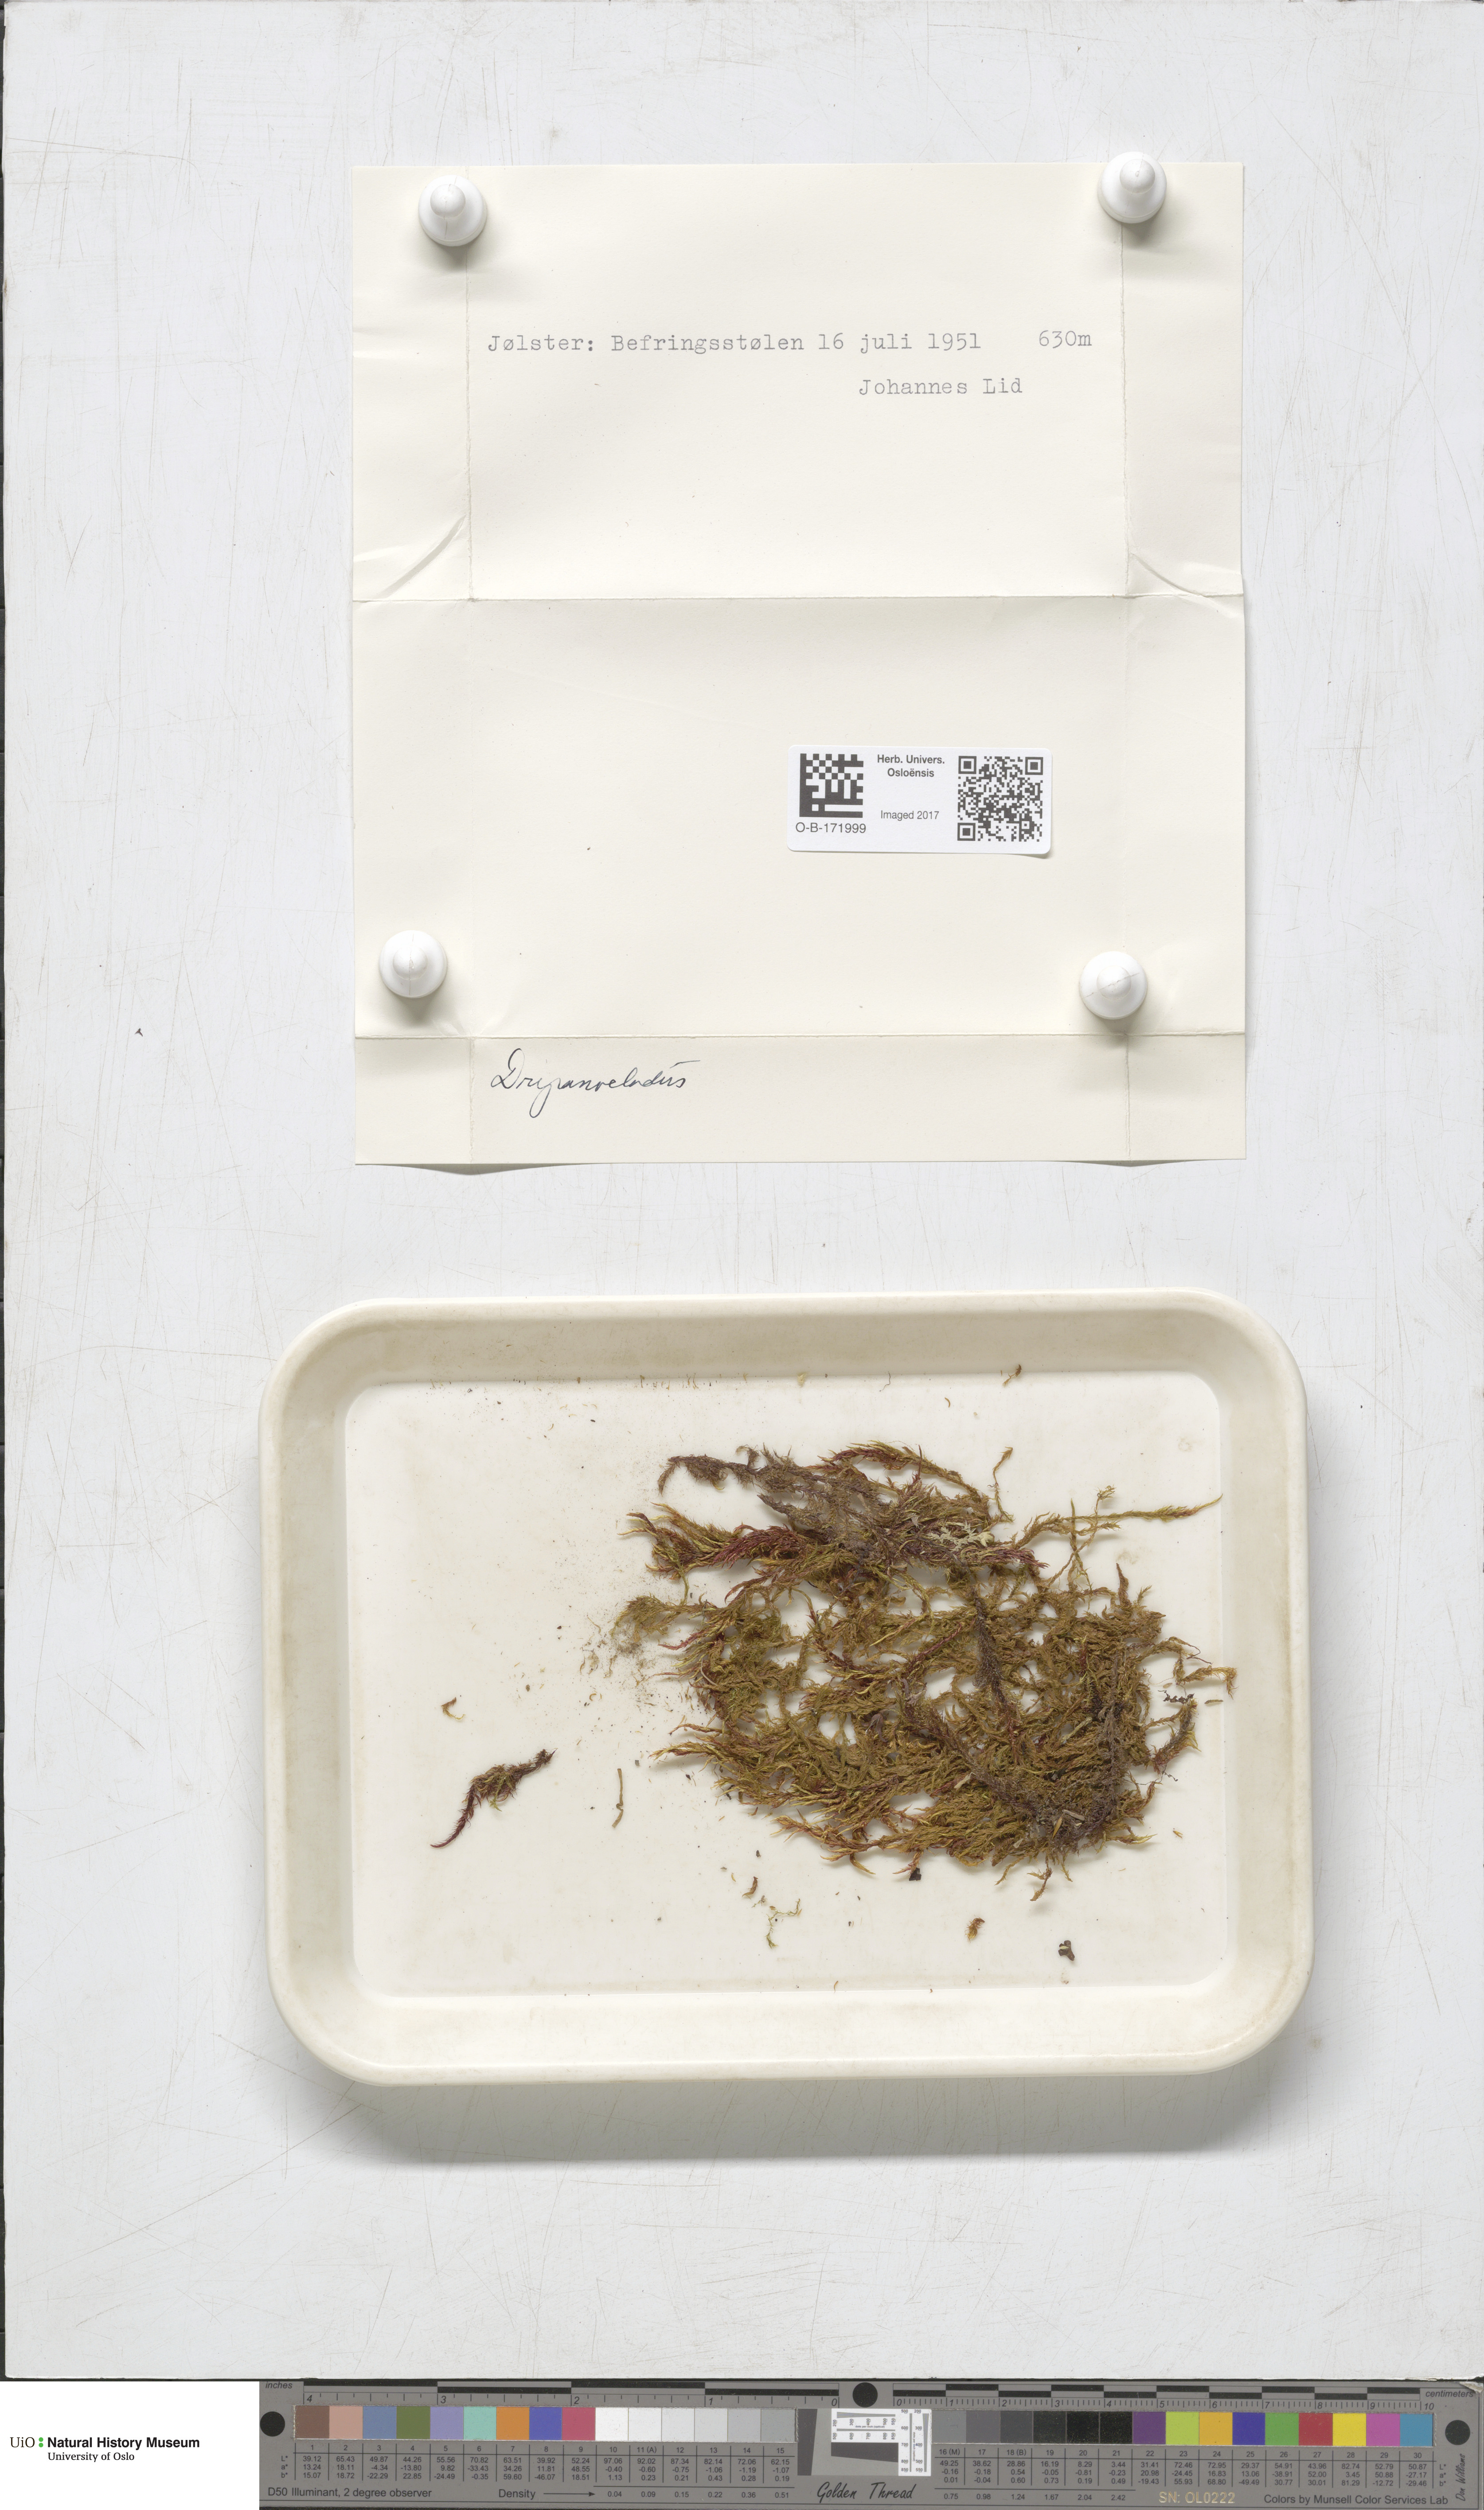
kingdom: Plantae
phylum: Bryophyta
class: Bryopsida
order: Hypnales
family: Amblystegiaceae
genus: Drepanocladus
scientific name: Drepanocladus sordidus
